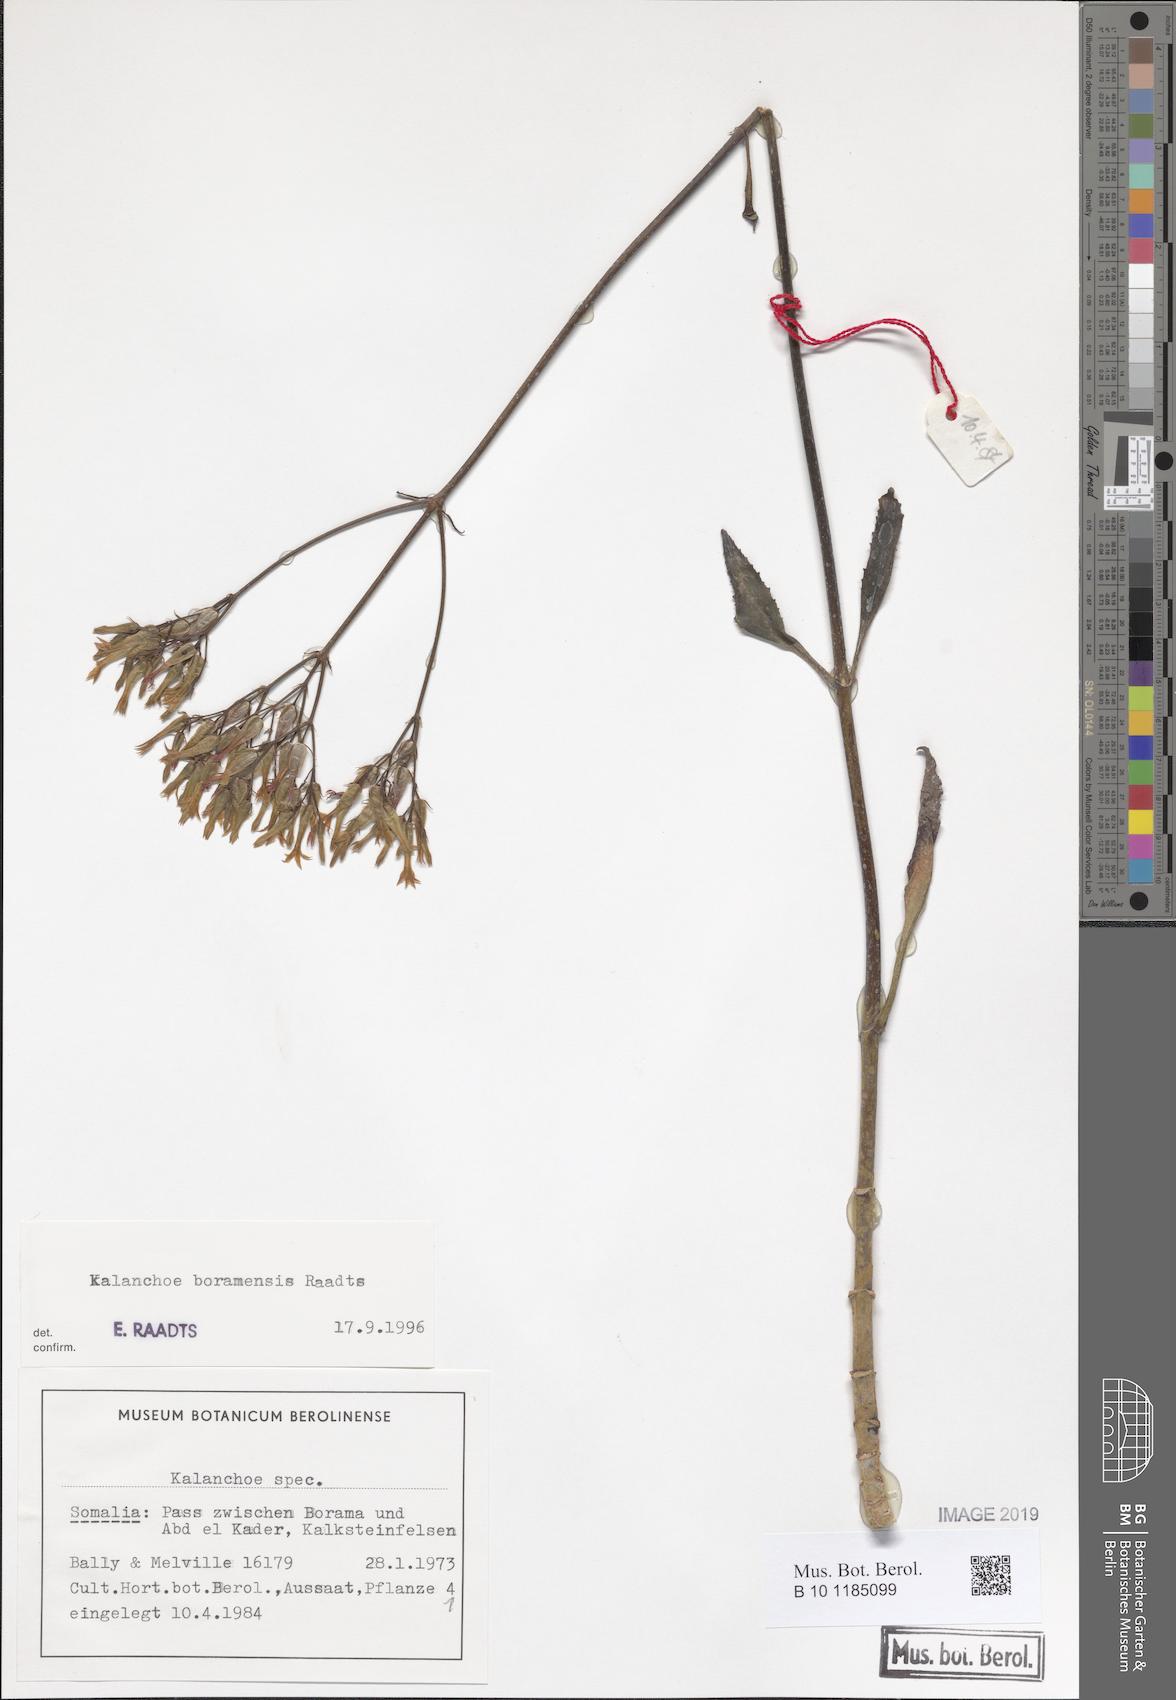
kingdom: Plantae
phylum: Tracheophyta
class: Magnoliopsida
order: Saxifragales
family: Crassulaceae
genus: Kalanchoe
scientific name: Kalanchoe
